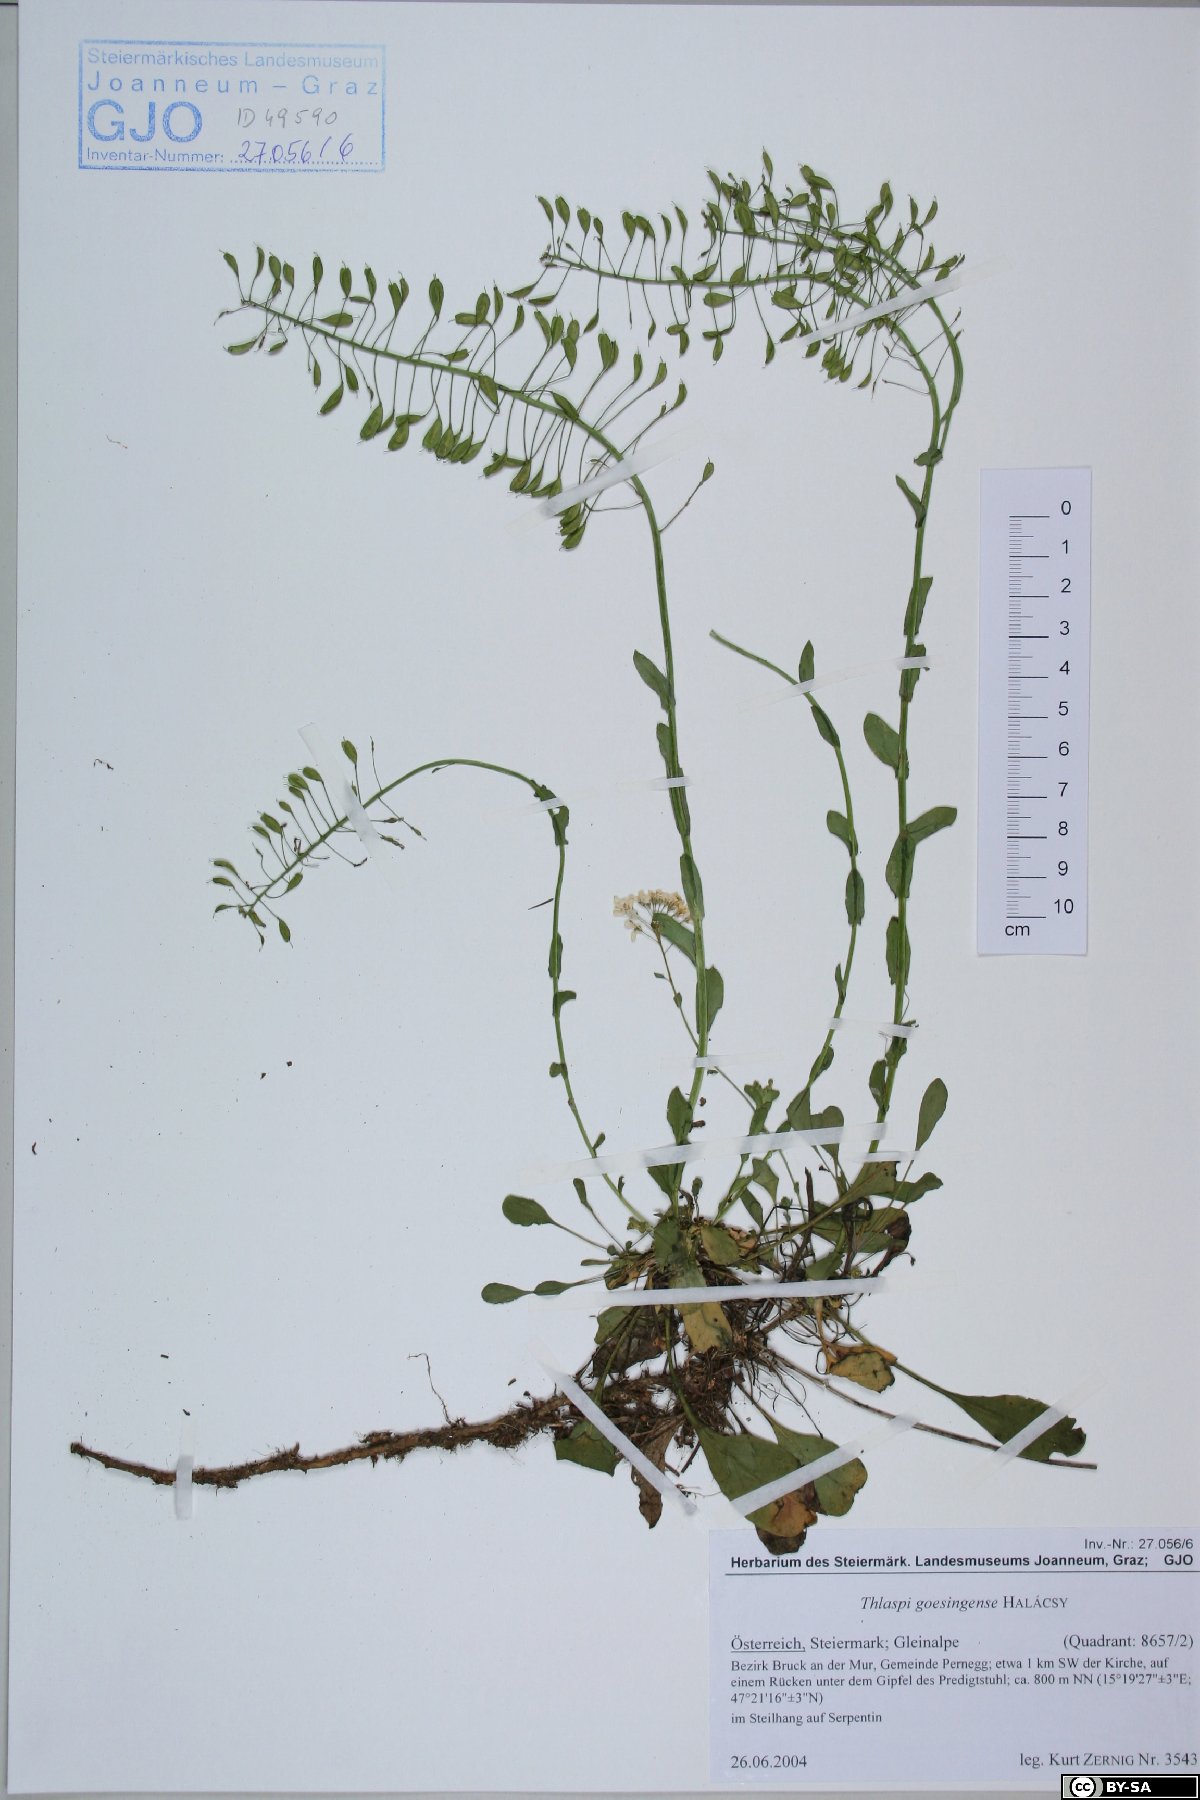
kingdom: Plantae
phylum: Tracheophyta
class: Magnoliopsida
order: Brassicales
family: Brassicaceae
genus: Noccaea
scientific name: Noccaea goesingensis
